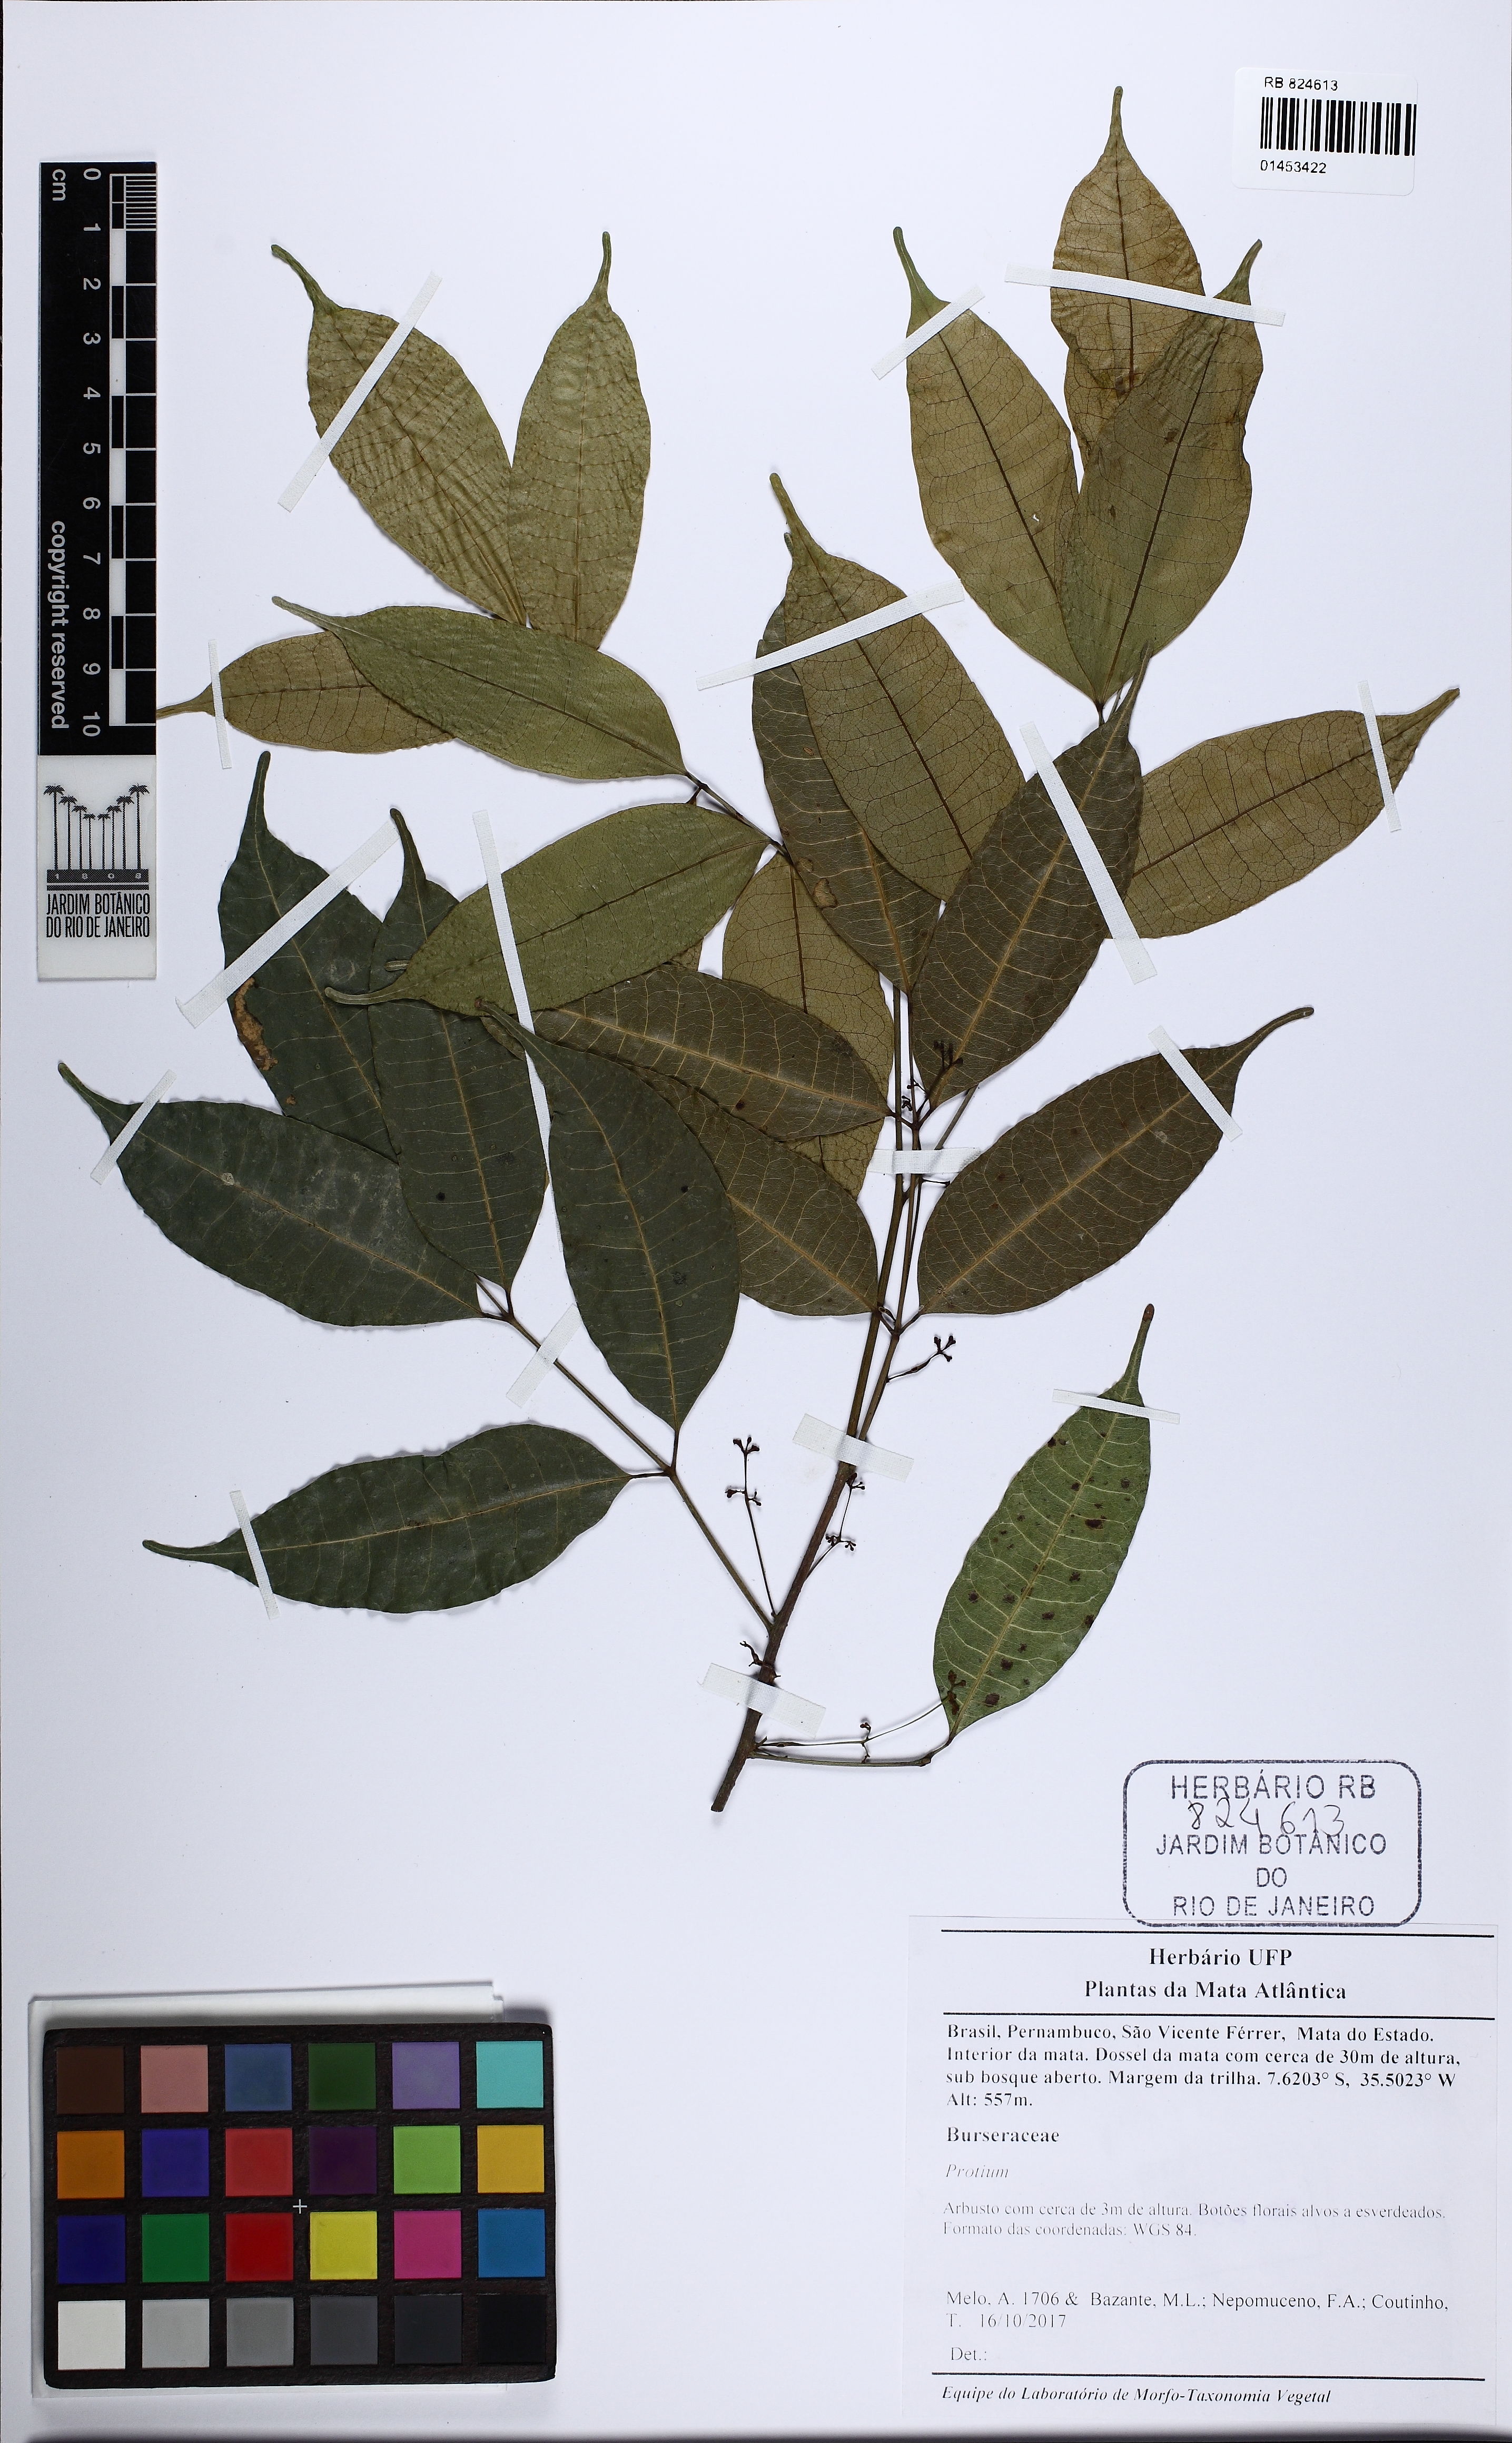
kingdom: Plantae
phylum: Tracheophyta
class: Magnoliopsida
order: Sapindales
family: Burseraceae
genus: Protium
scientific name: Protium
